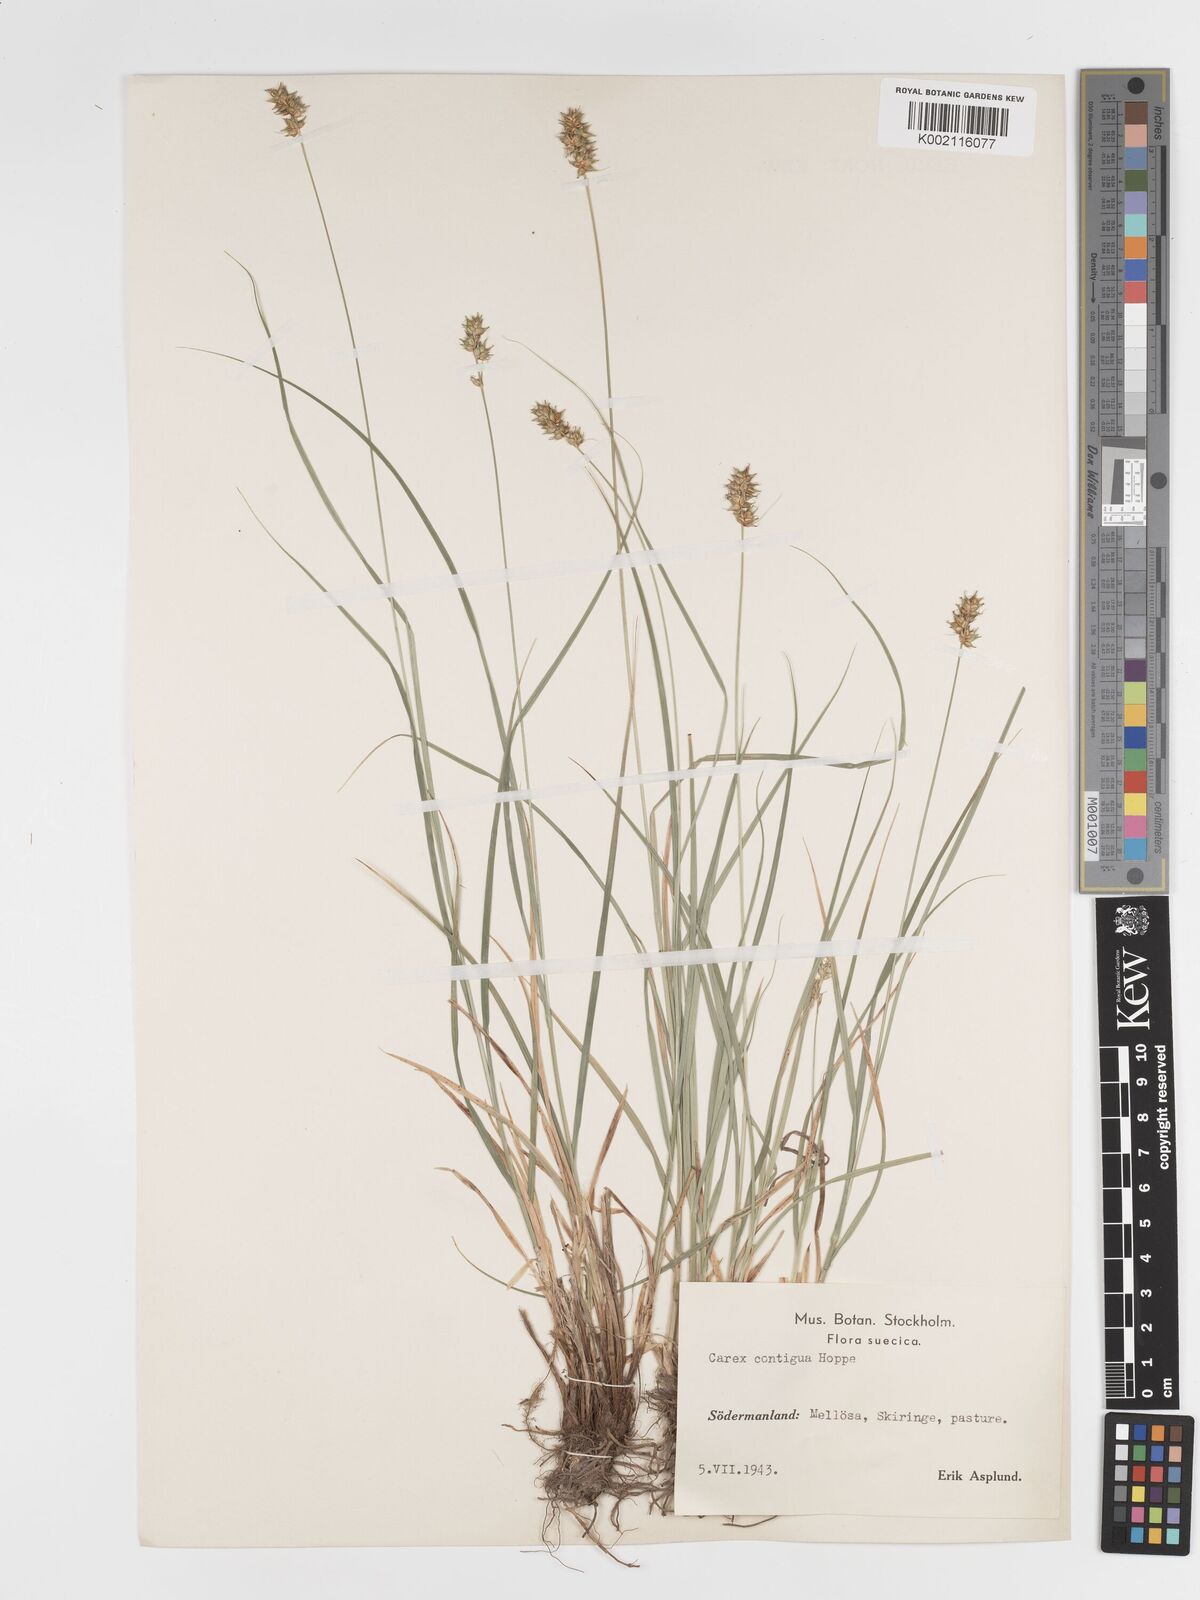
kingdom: Plantae
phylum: Tracheophyta
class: Liliopsida
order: Poales
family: Cyperaceae
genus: Carex
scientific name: Carex spicata
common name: Spiked sedge
